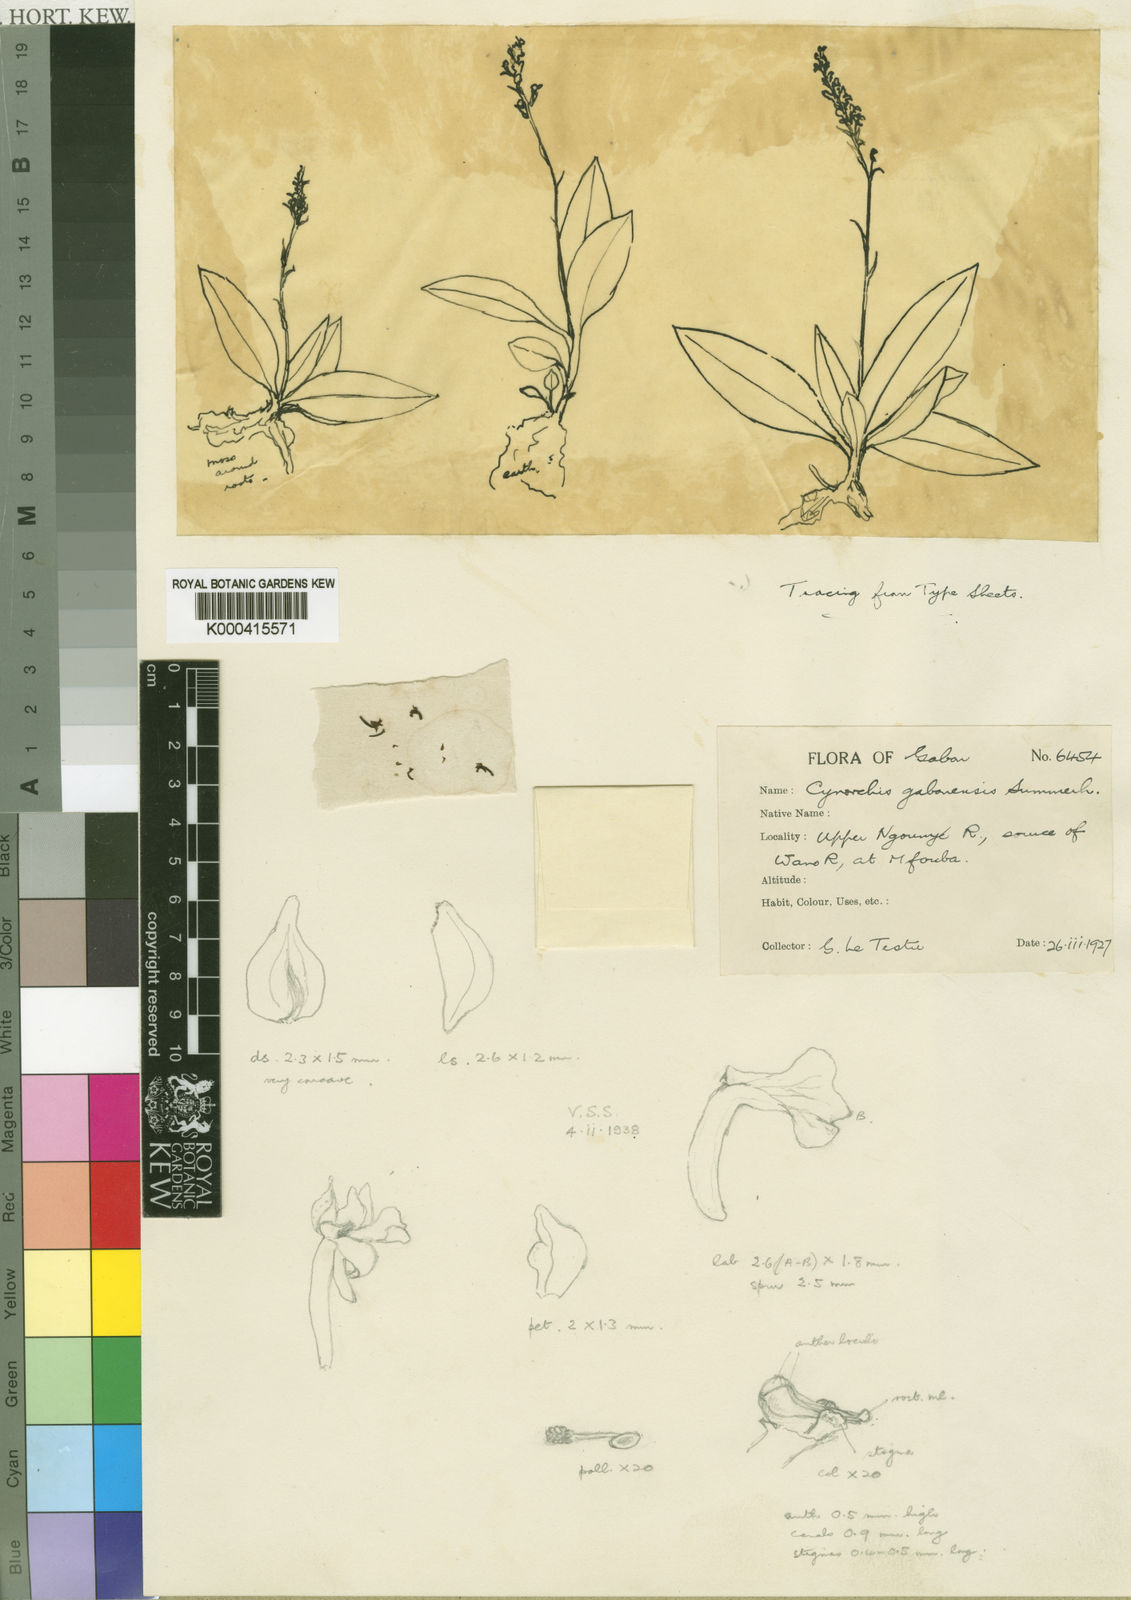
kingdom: Plantae
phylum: Tracheophyta
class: Liliopsida
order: Asparagales
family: Orchidaceae
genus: Cynorkis
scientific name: Cynorkis gabonensis
